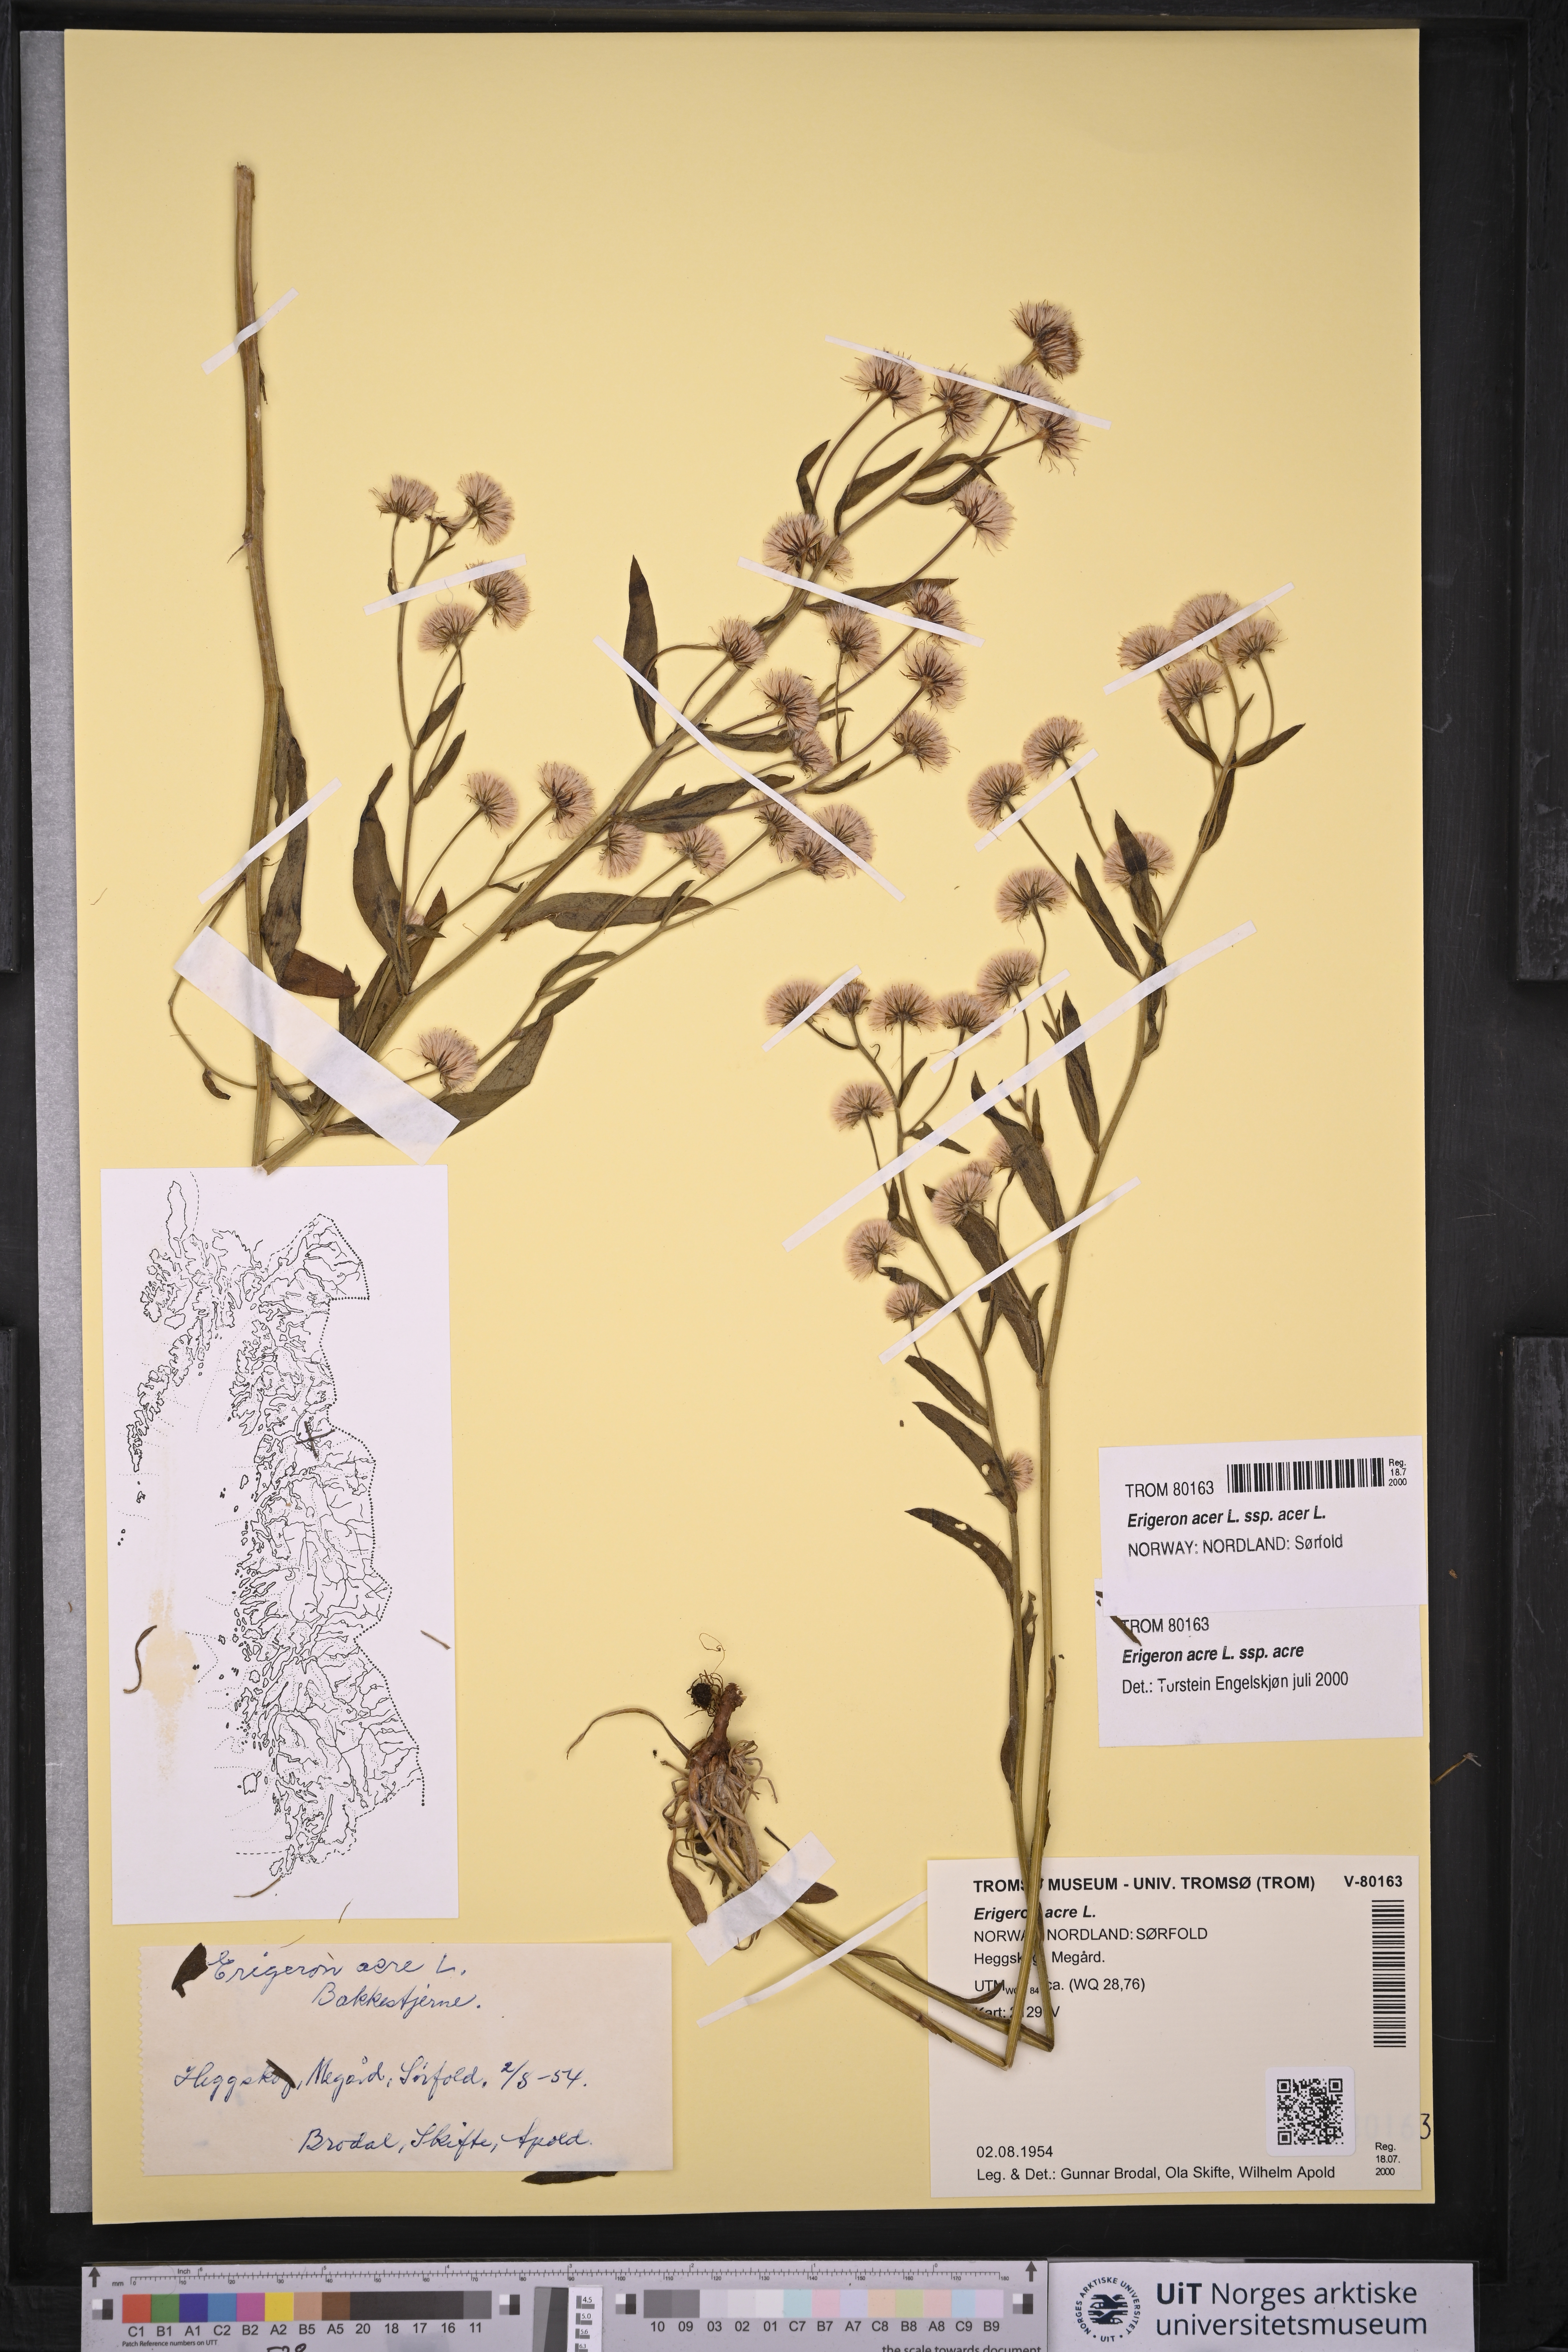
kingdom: Plantae
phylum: Tracheophyta
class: Magnoliopsida
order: Asterales
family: Asteraceae
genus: Erigeron
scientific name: Erigeron acris
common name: Blue fleabane
